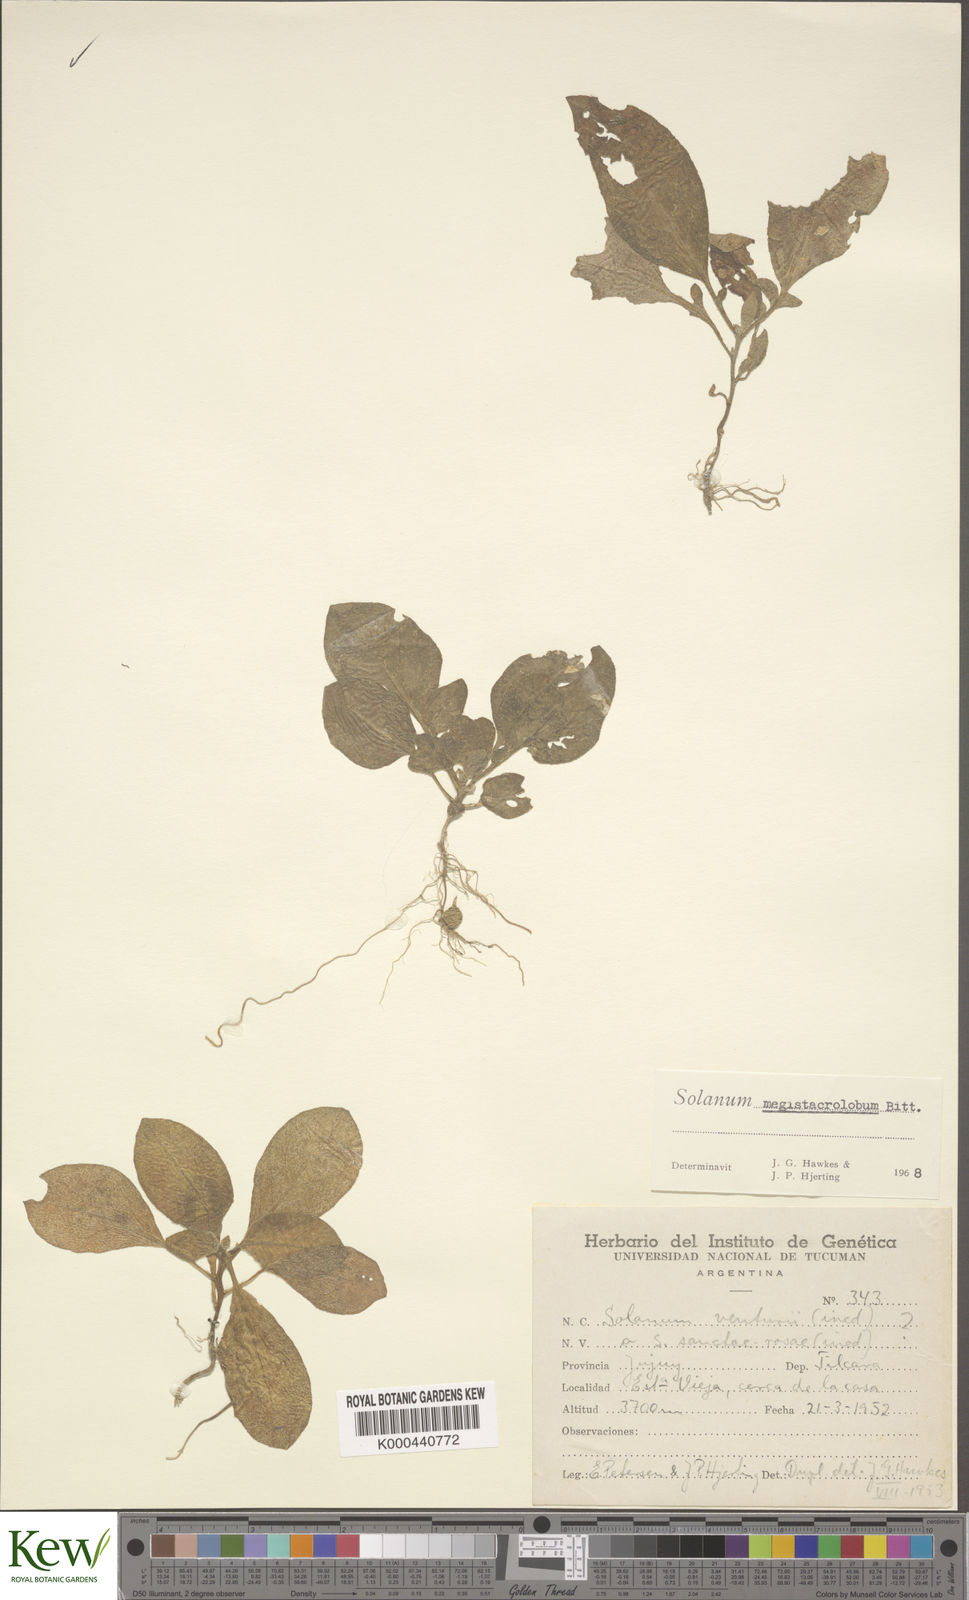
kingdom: Plantae
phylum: Tracheophyta
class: Magnoliopsida
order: Solanales
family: Solanaceae
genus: Solanum
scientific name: Solanum boliviense
